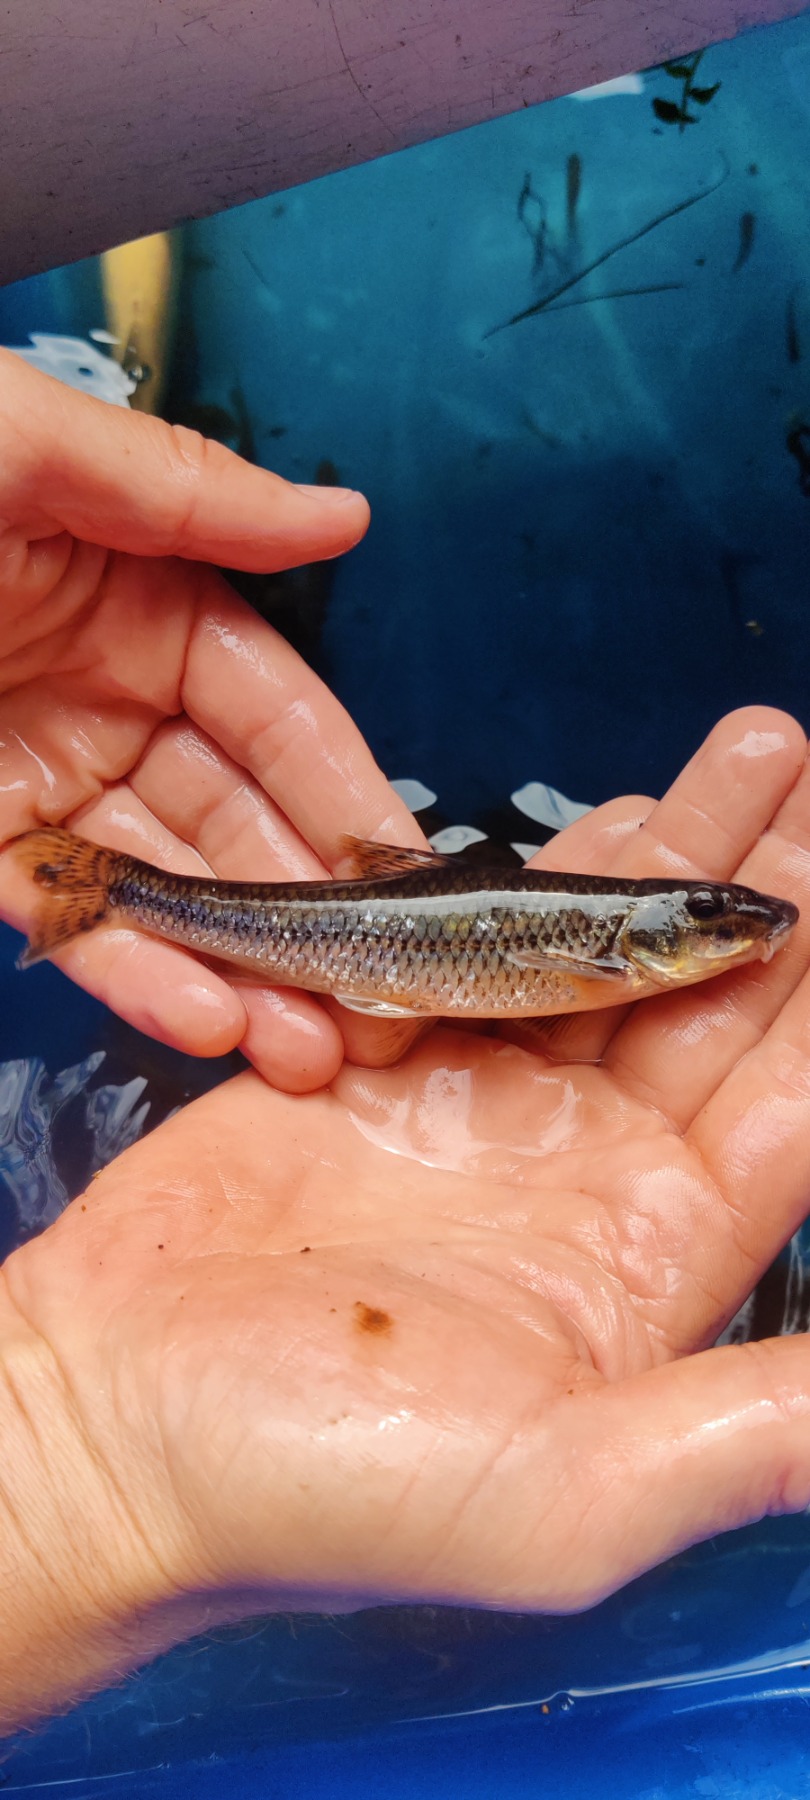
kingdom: Animalia
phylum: Chordata
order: Cypriniformes
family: Cyprinidae
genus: Gobio
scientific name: Gobio gobio
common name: Grundling
